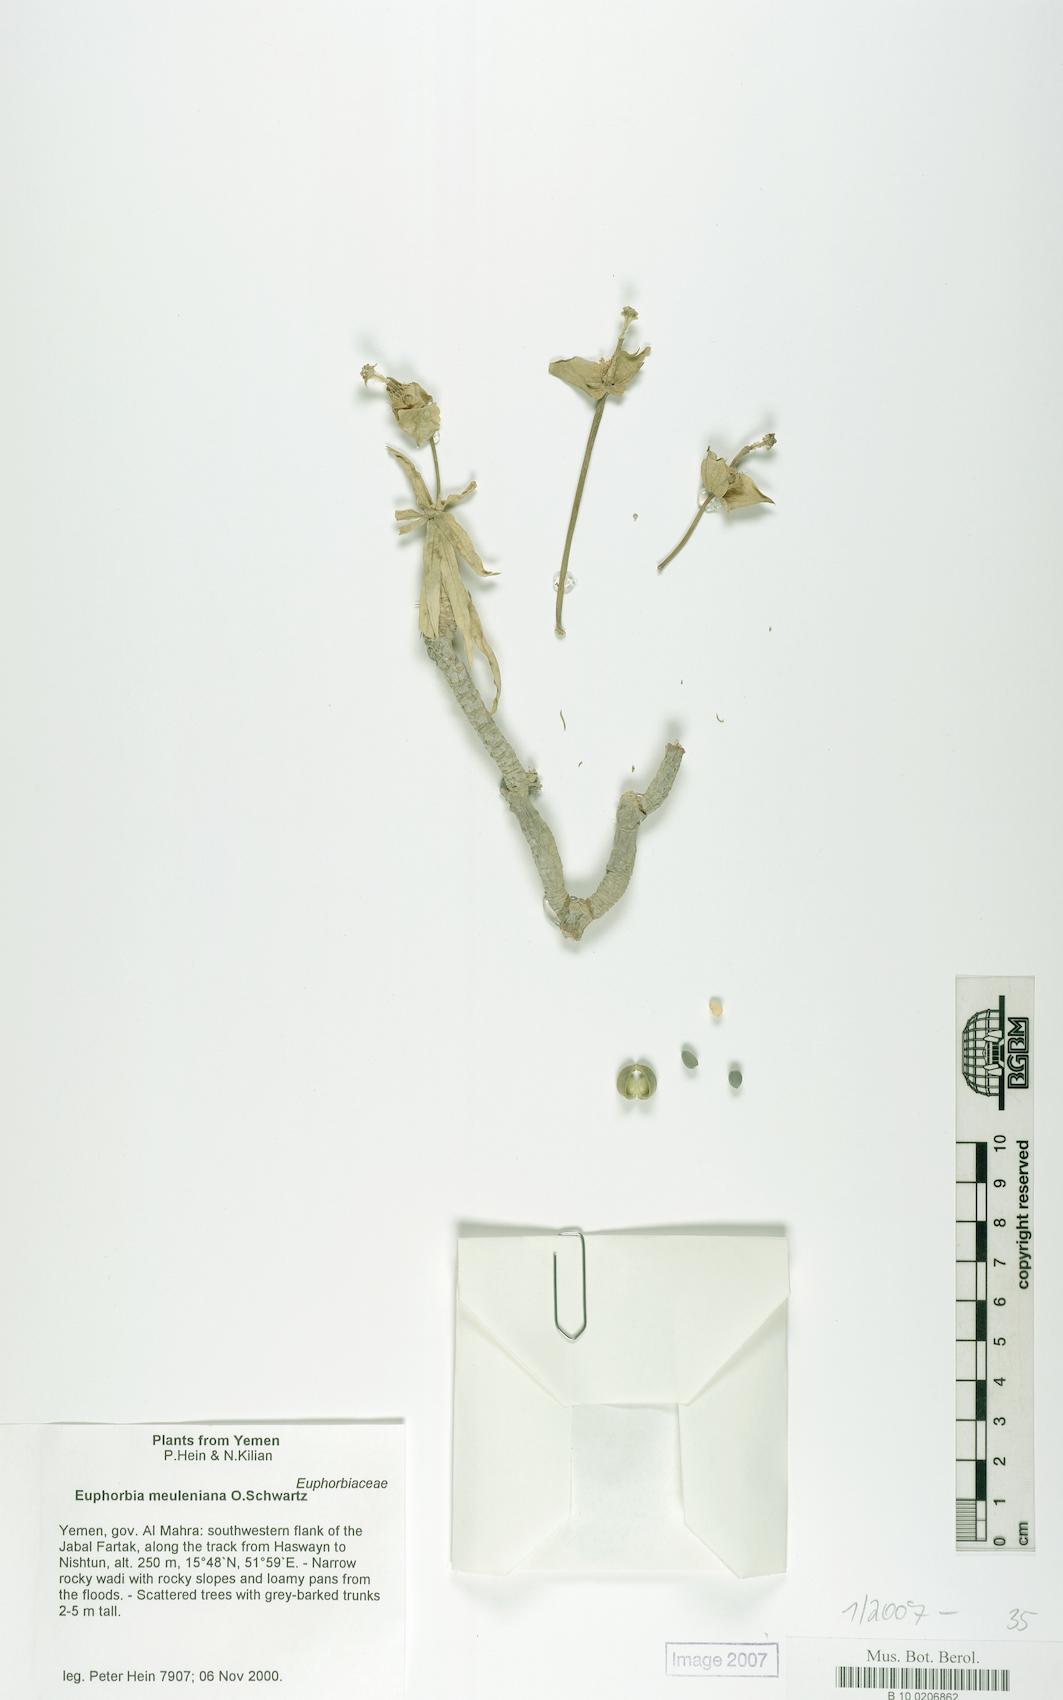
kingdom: Plantae
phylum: Tracheophyta
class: Magnoliopsida
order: Malpighiales
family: Euphorbiaceae
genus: Euphorbia
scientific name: Euphorbia meuleniana
